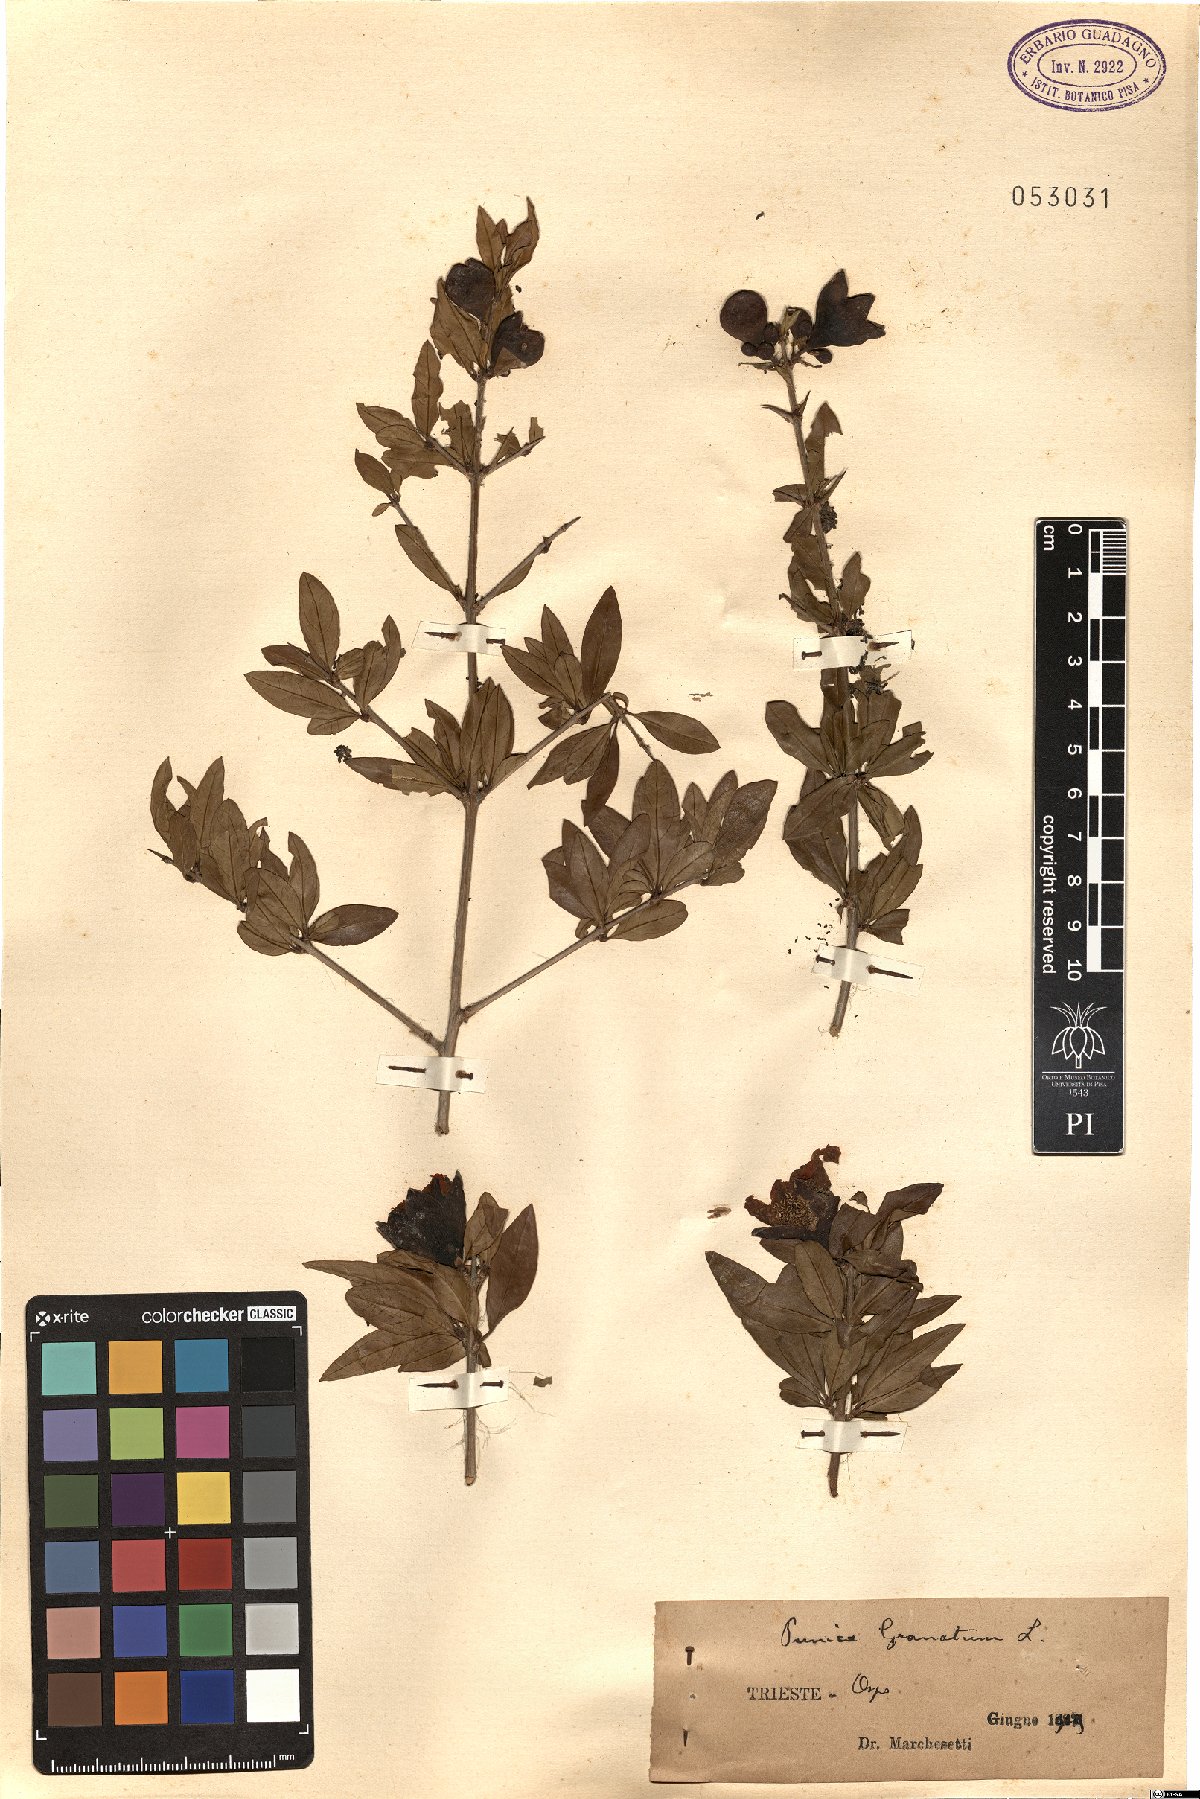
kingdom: Plantae
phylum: Tracheophyta
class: Magnoliopsida
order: Myrtales
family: Lythraceae
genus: Punica
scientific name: Punica granatum
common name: Pomegranate
